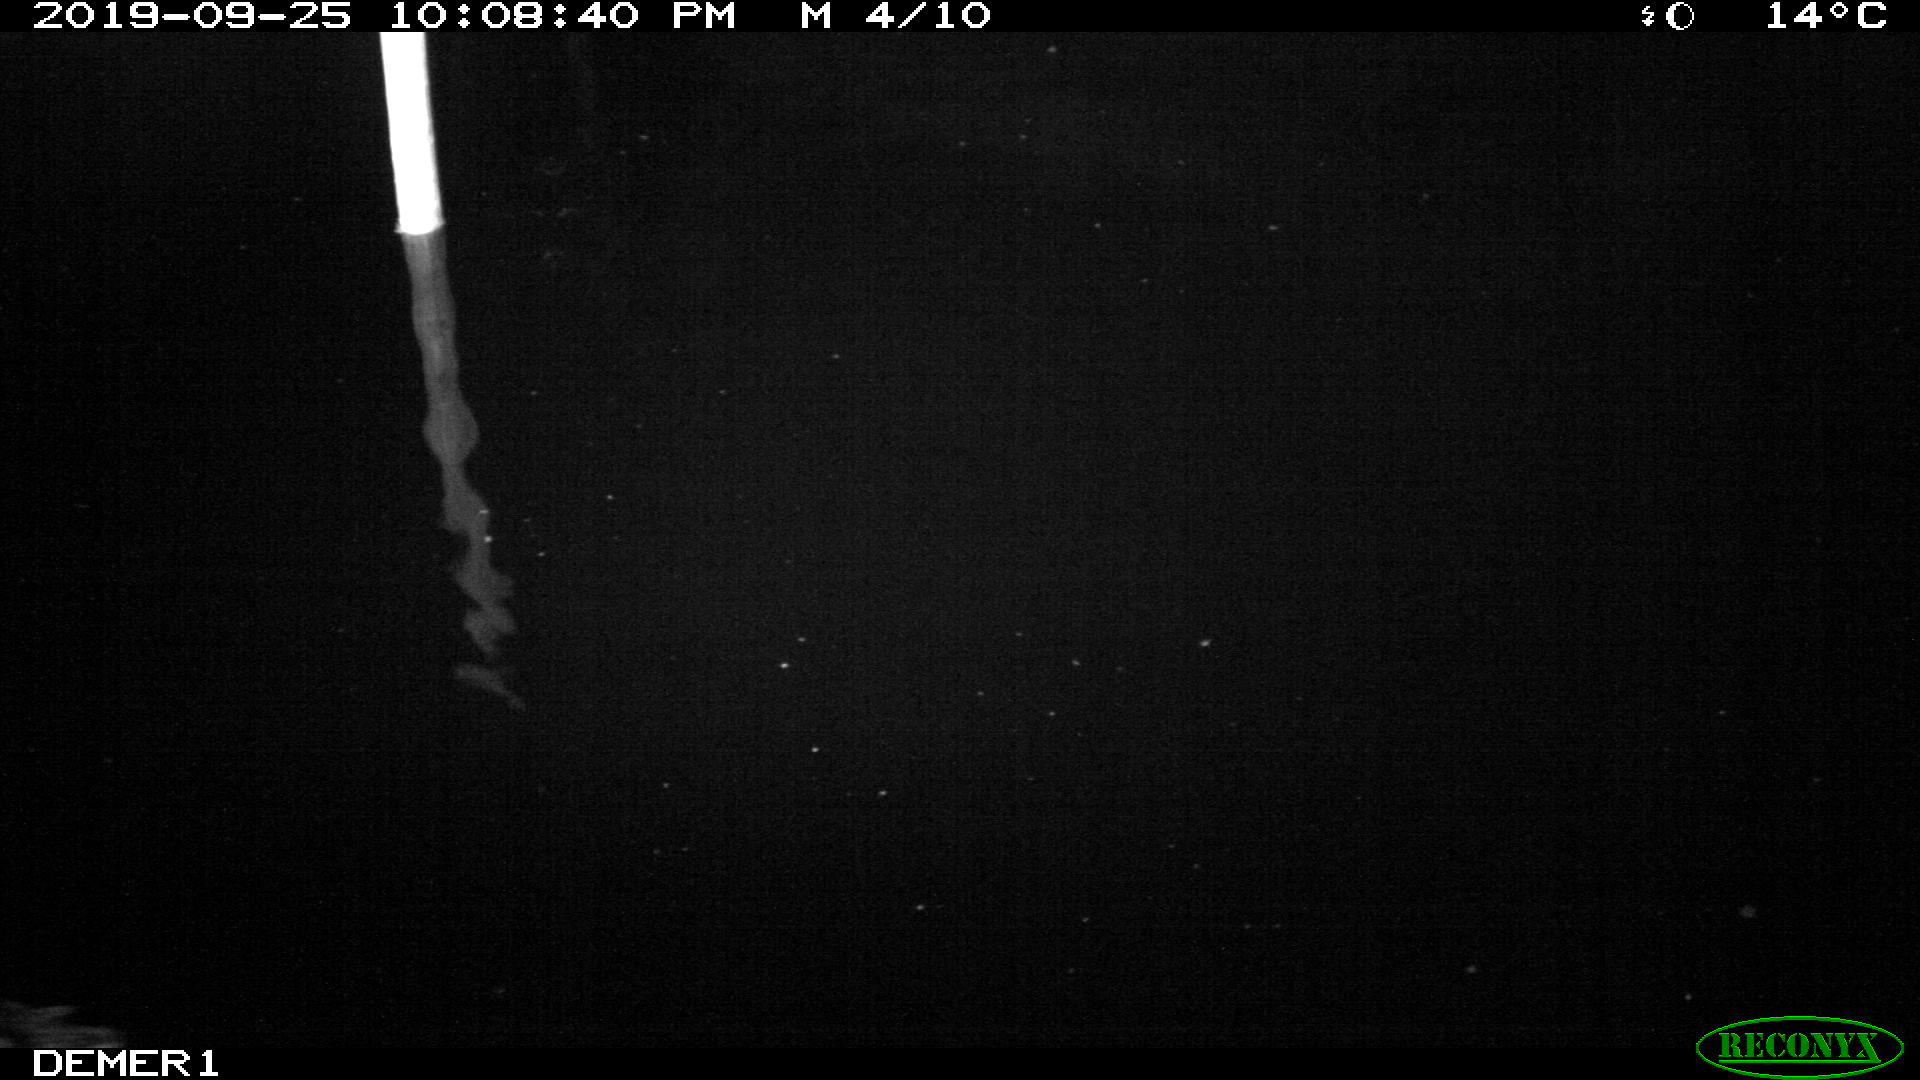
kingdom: Animalia
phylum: Chordata
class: Aves
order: Anseriformes
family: Anatidae
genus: Anas
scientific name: Anas platyrhynchos
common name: Mallard
